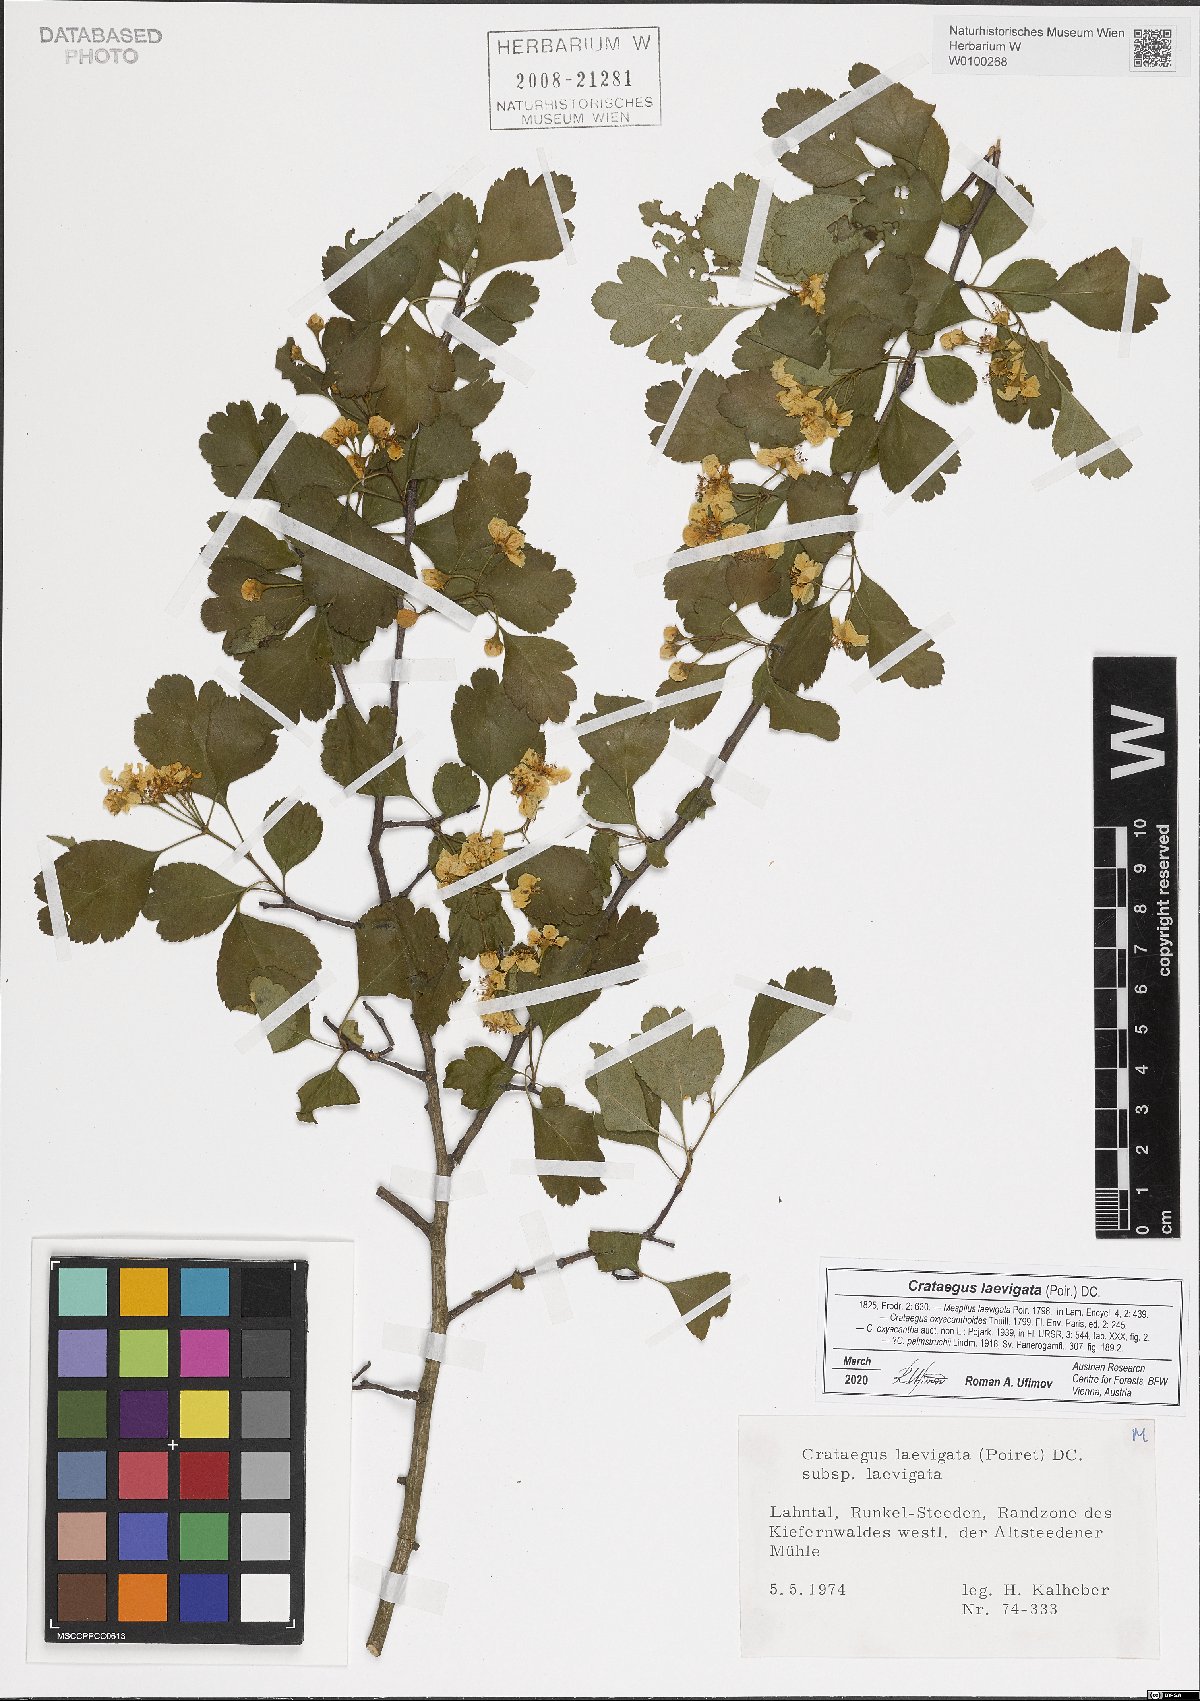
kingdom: Plantae
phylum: Tracheophyta
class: Magnoliopsida
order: Rosales
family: Rosaceae
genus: Crataegus
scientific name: Crataegus laevigata
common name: Midland hawthorn
